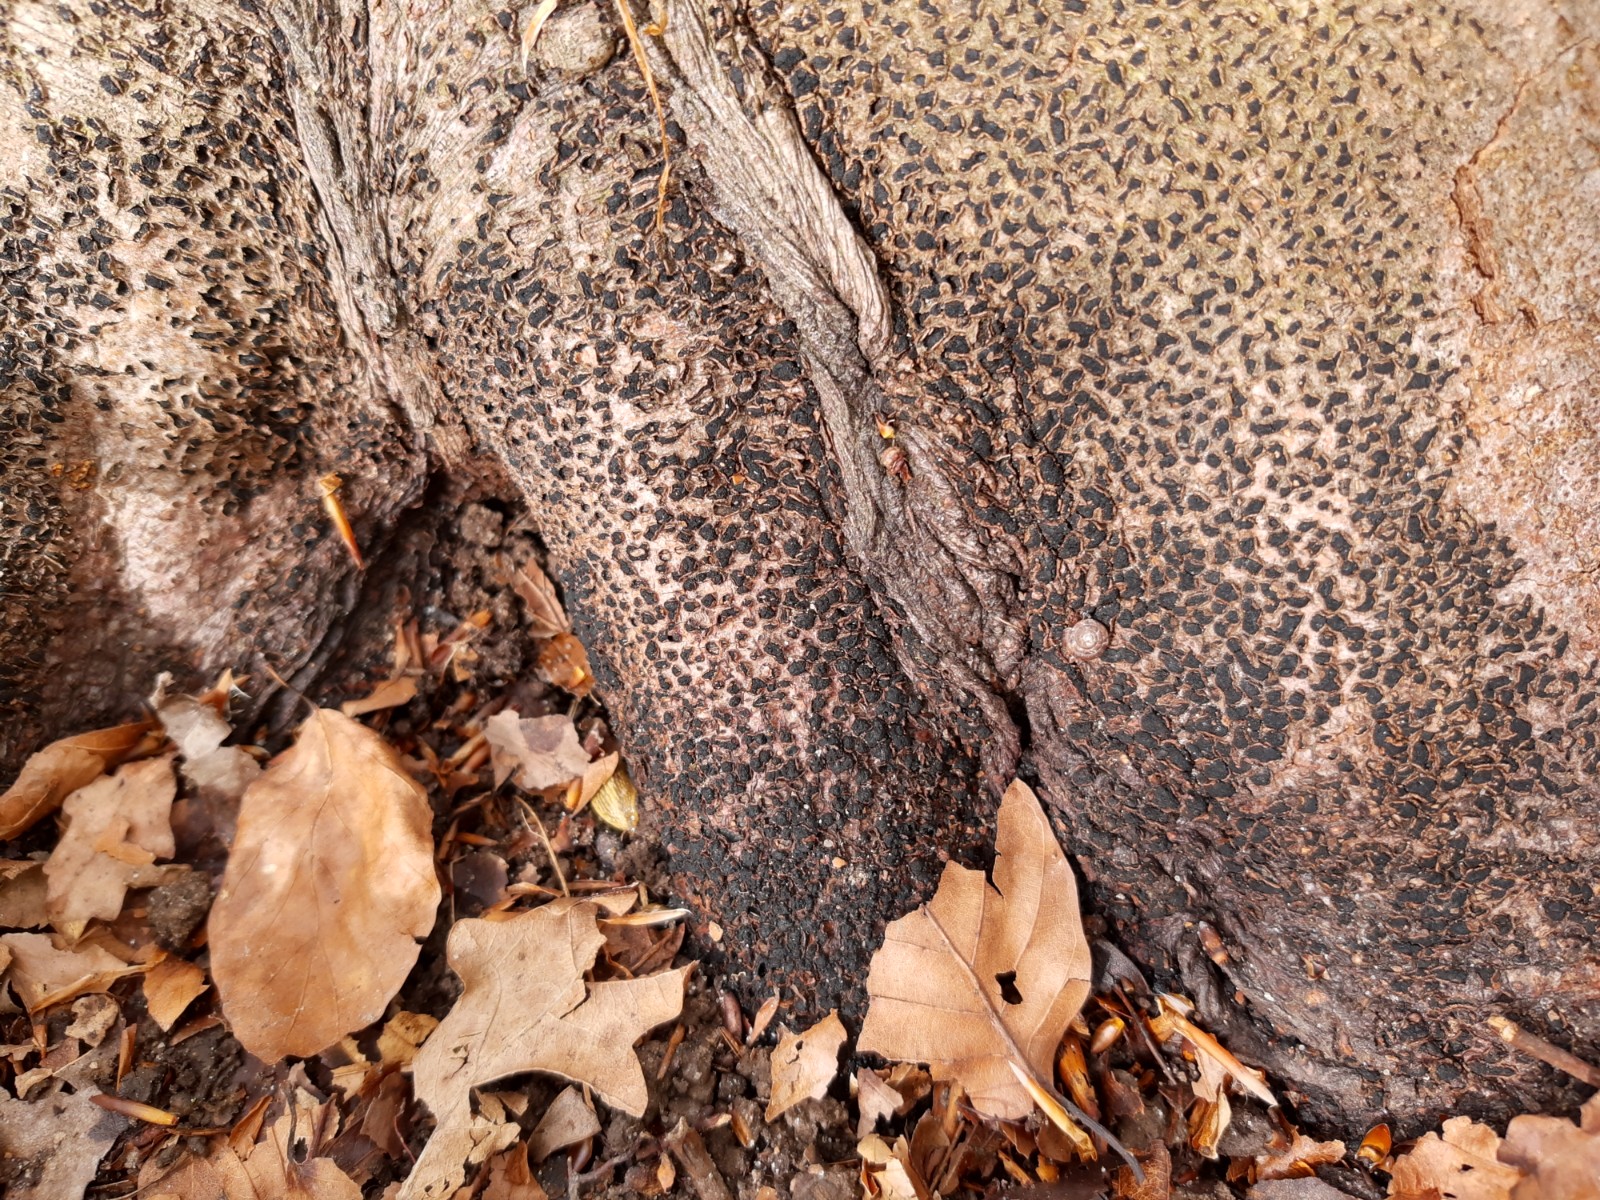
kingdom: Fungi
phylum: Ascomycota
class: Sordariomycetes
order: Xylariales
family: Melogrammataceae
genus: Melogramma
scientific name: Melogramma spiniferum
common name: bøgefod-kulhals
